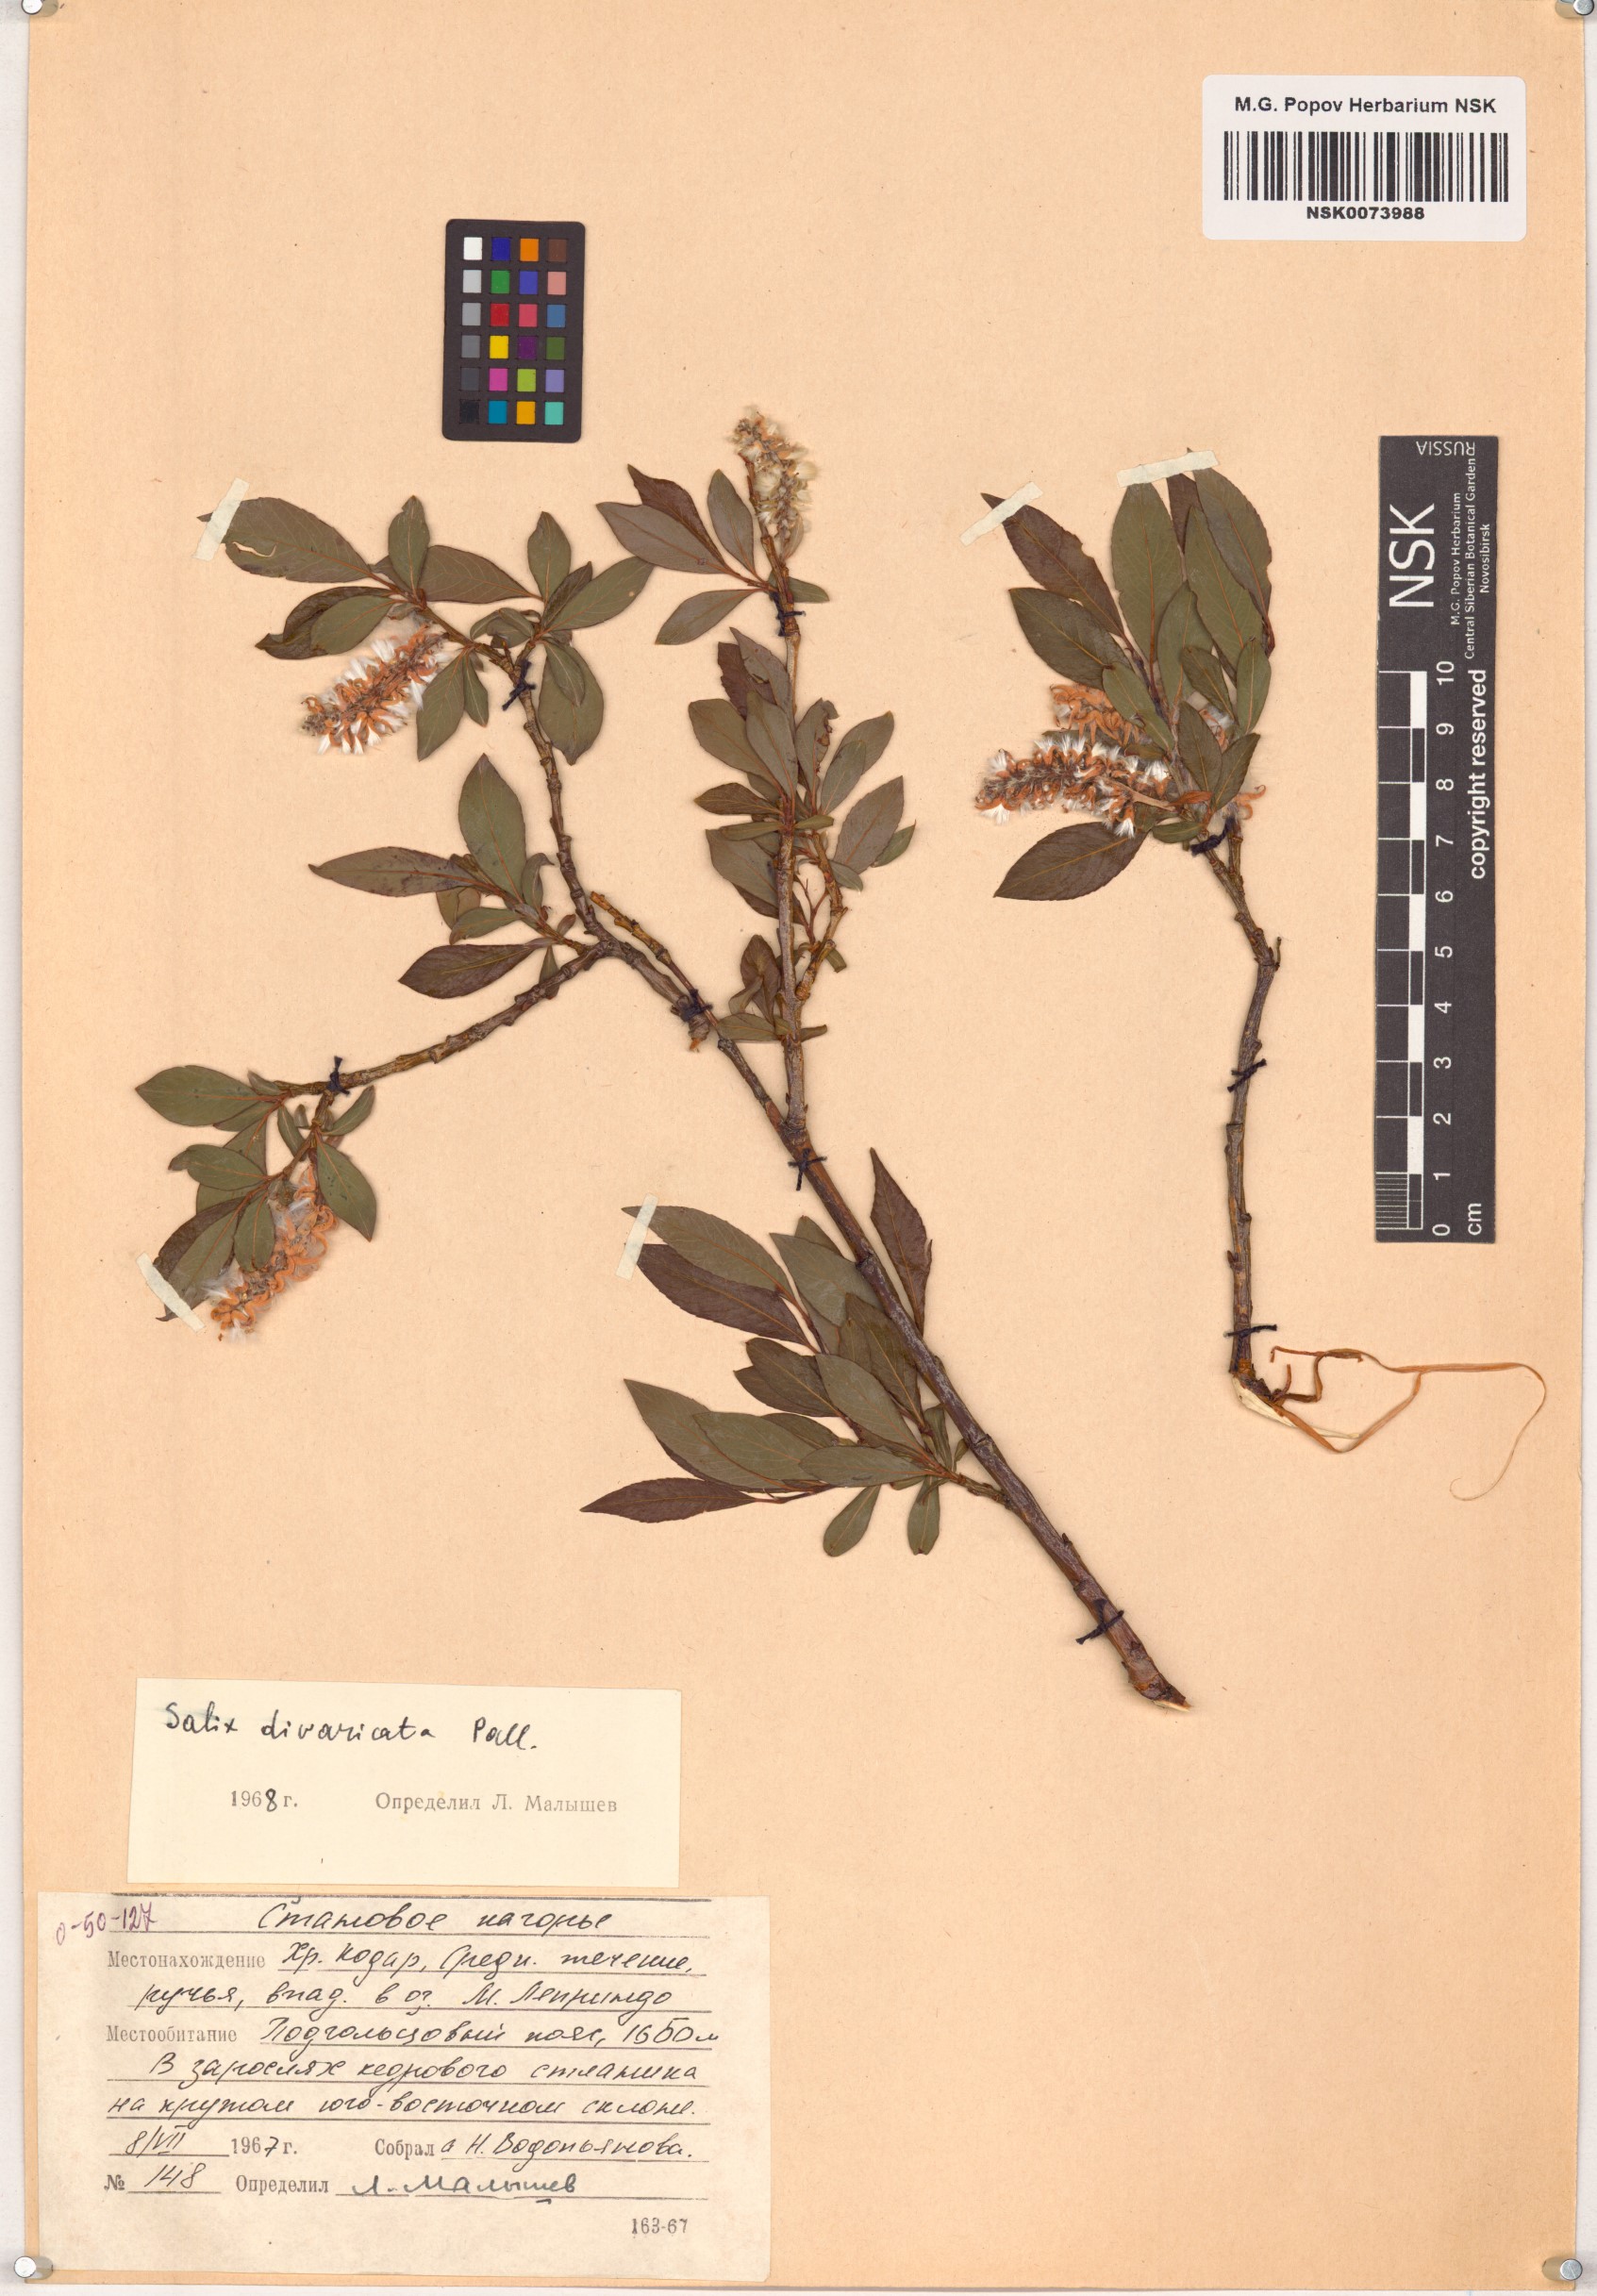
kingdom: Plantae
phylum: Tracheophyta
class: Magnoliopsida
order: Malpighiales
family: Salicaceae
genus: Salix
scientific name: Salix divaricata
